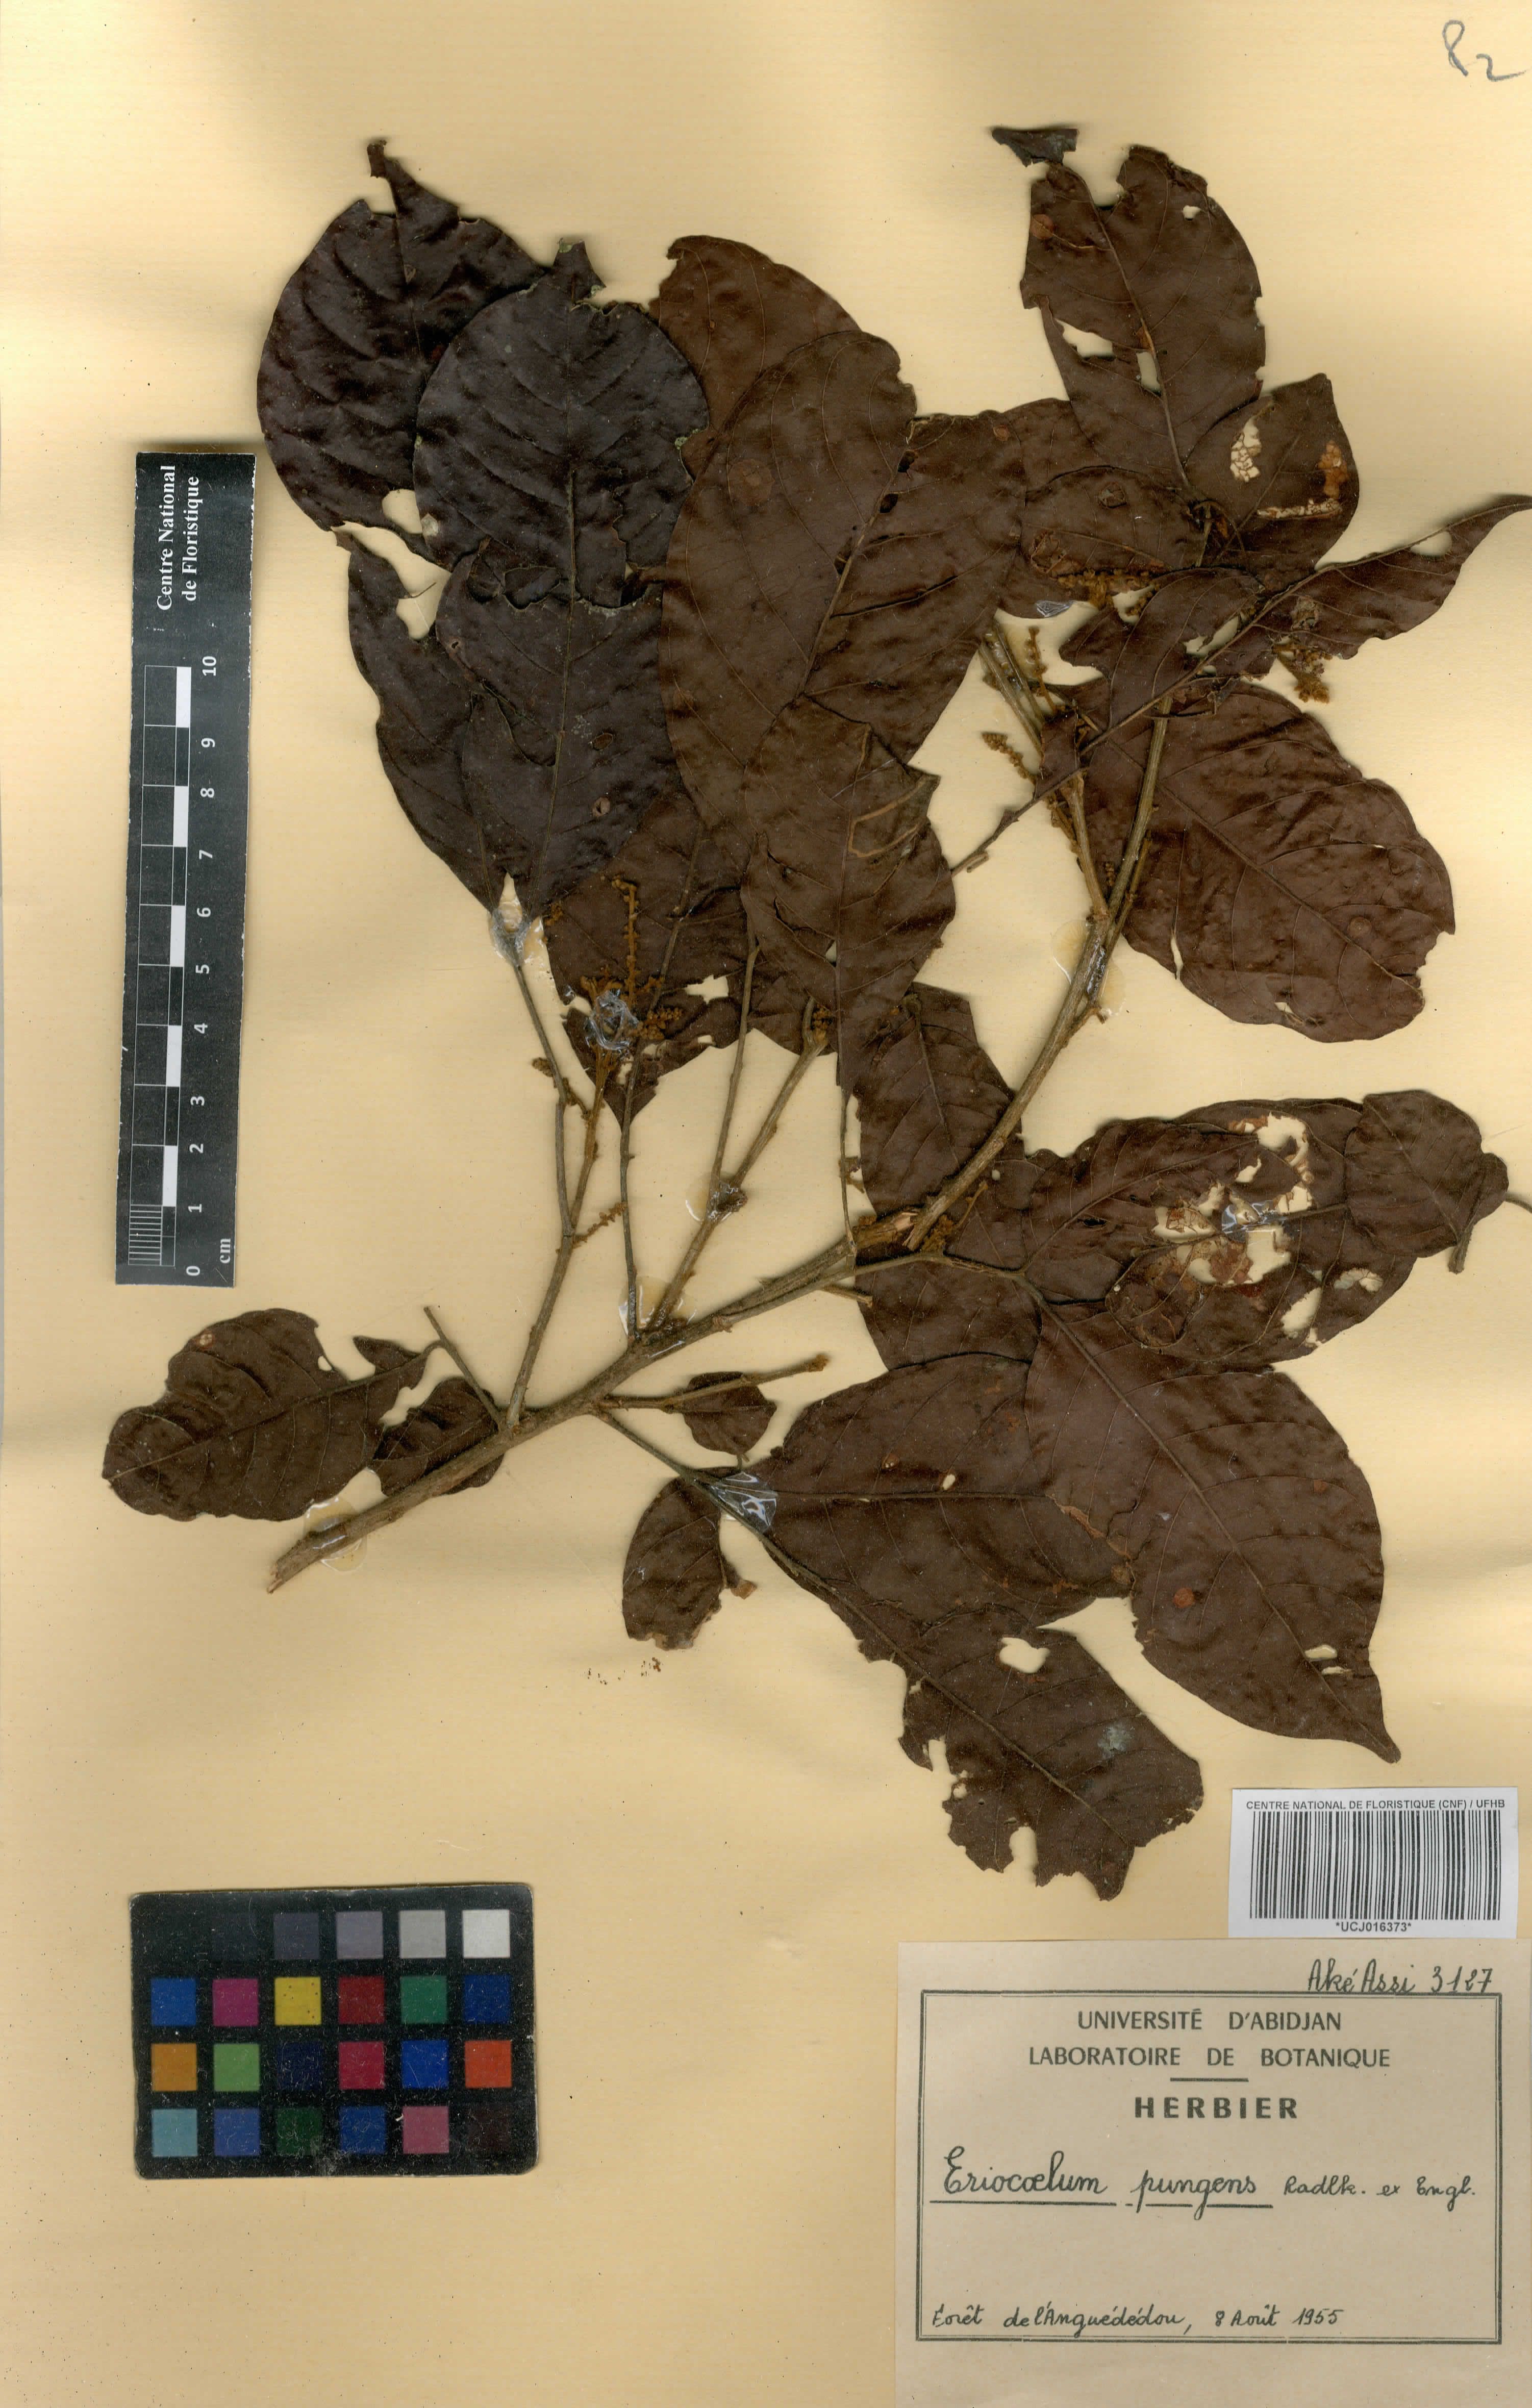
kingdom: Plantae
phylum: Tracheophyta
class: Magnoliopsida
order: Sapindales
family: Sapindaceae
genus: Eriocoelum
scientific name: Eriocoelum pungens
